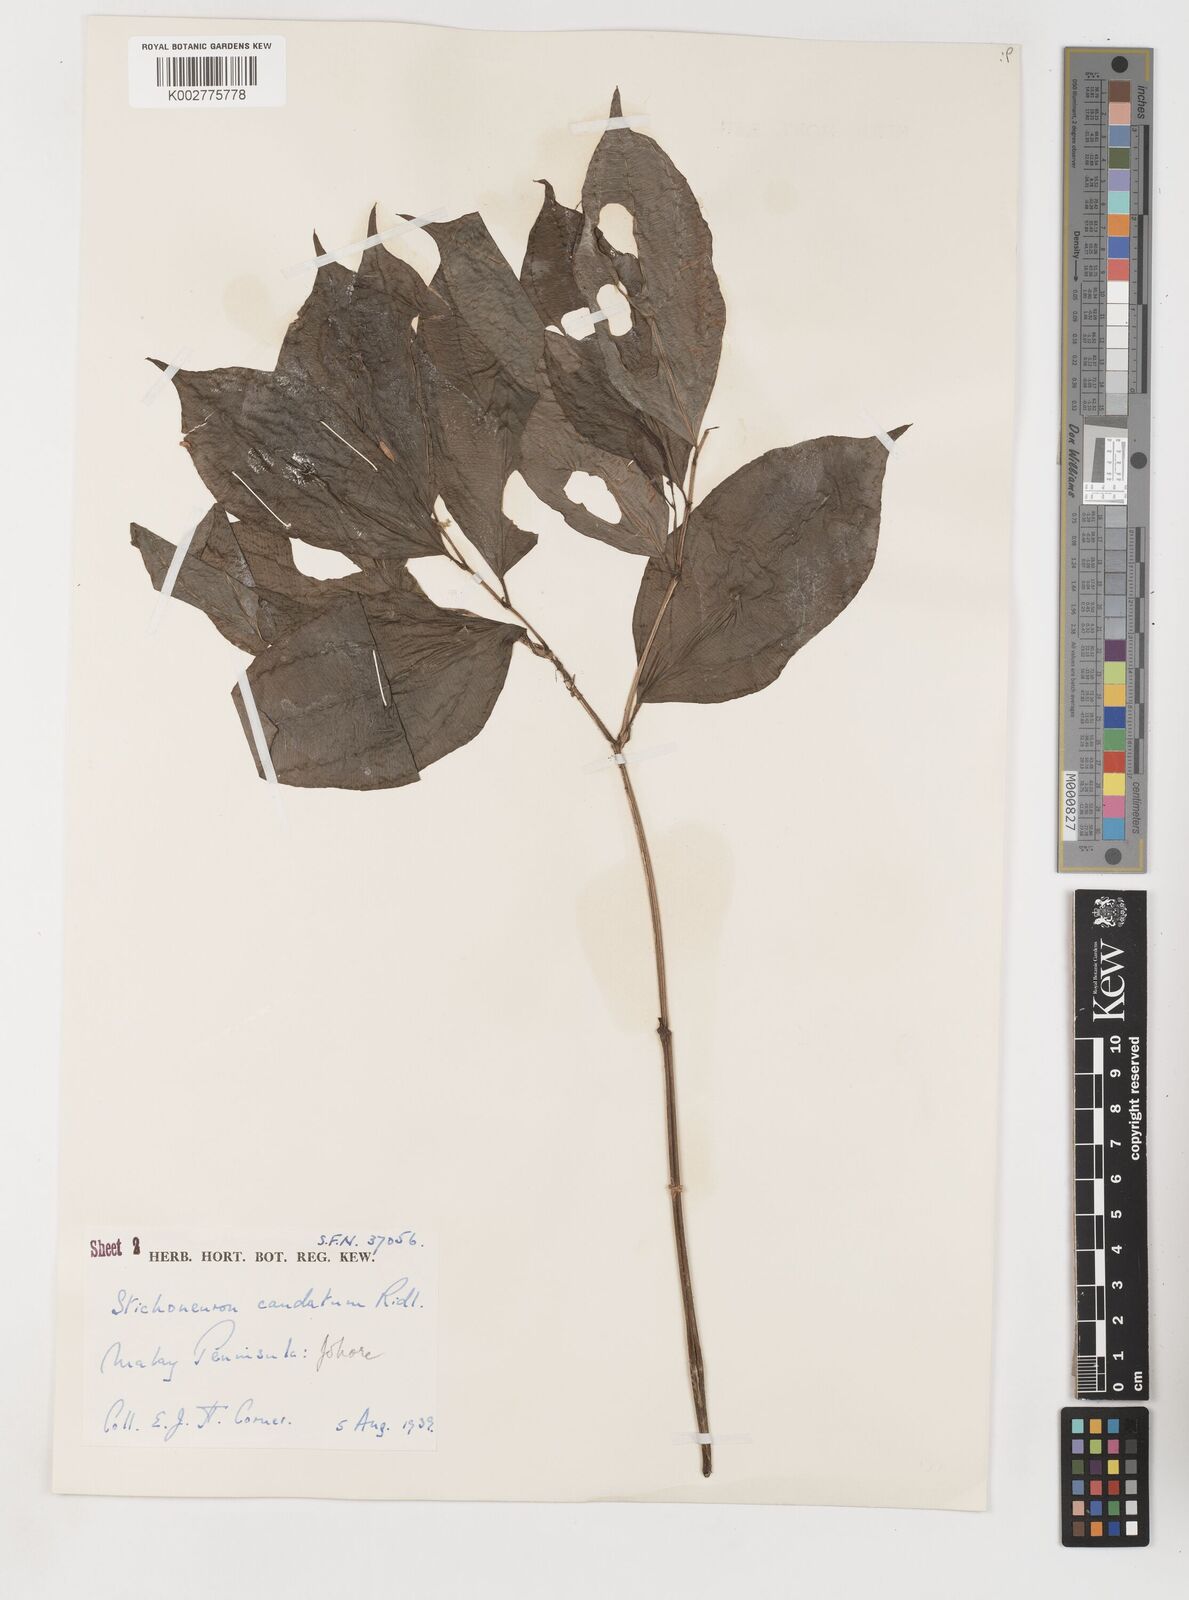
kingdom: Plantae
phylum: Tracheophyta
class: Liliopsida
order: Pandanales
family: Stemonaceae
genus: Stichoneuron
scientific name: Stichoneuron caudatum
